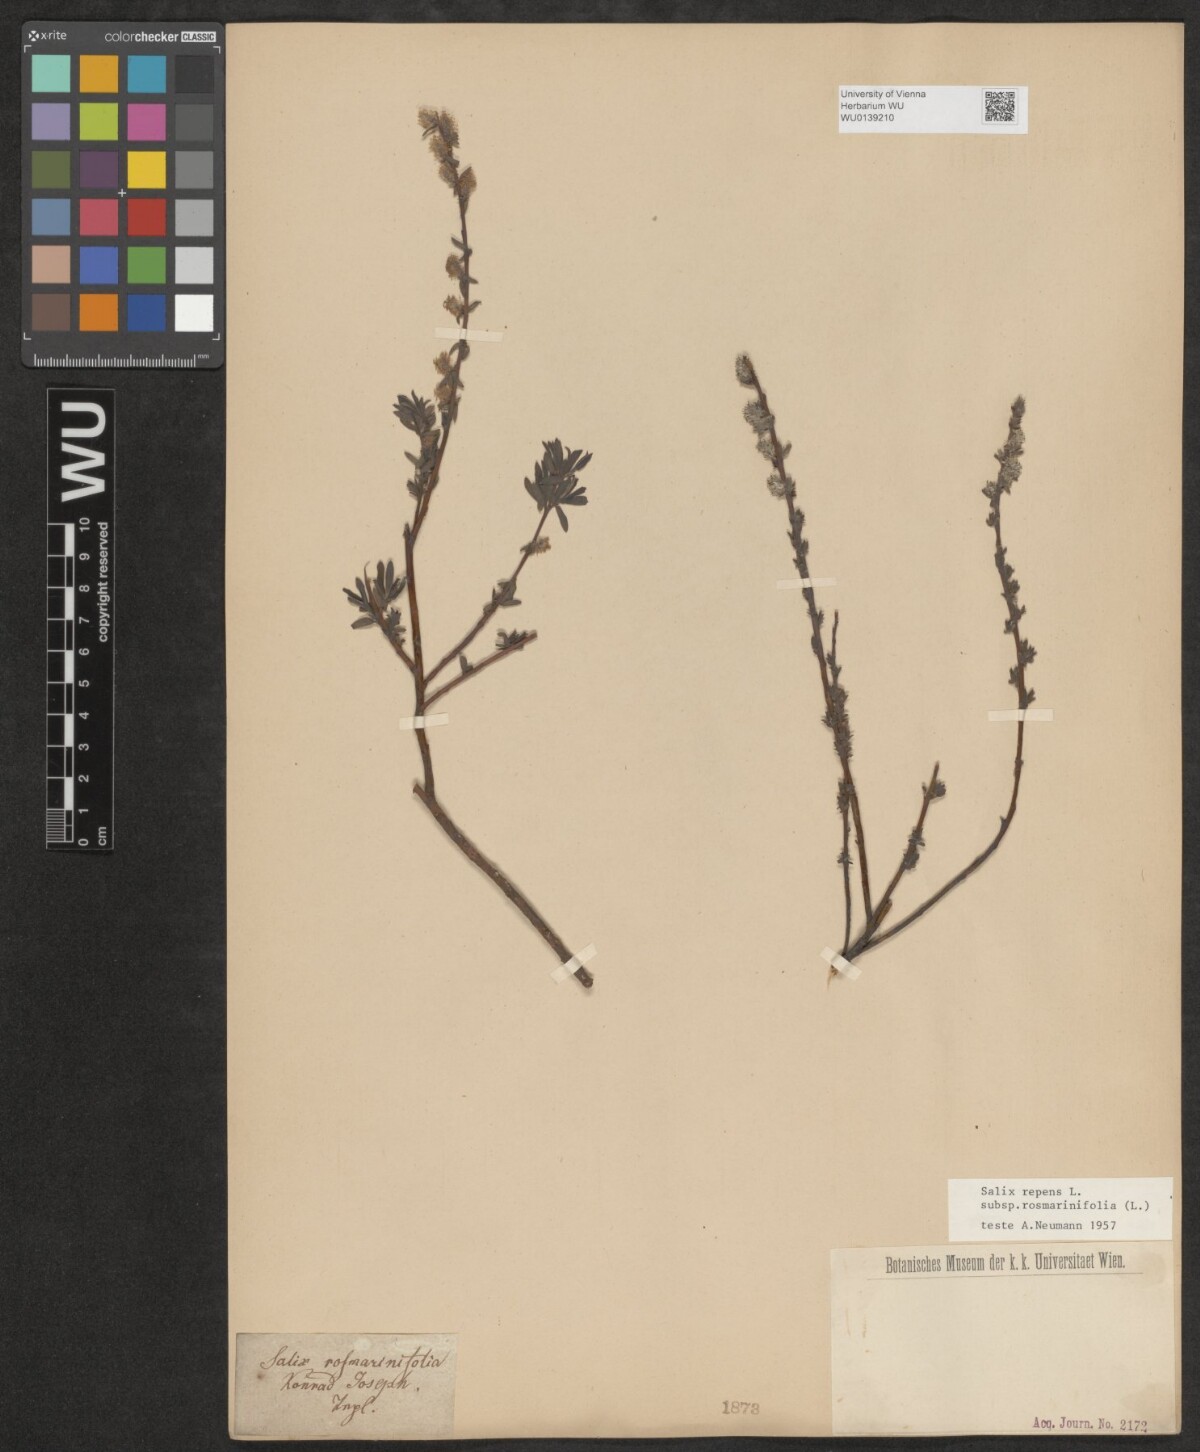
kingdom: Plantae
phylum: Tracheophyta
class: Magnoliopsida
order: Malpighiales
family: Salicaceae
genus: Salix
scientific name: Salix repens
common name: Creeping willow
